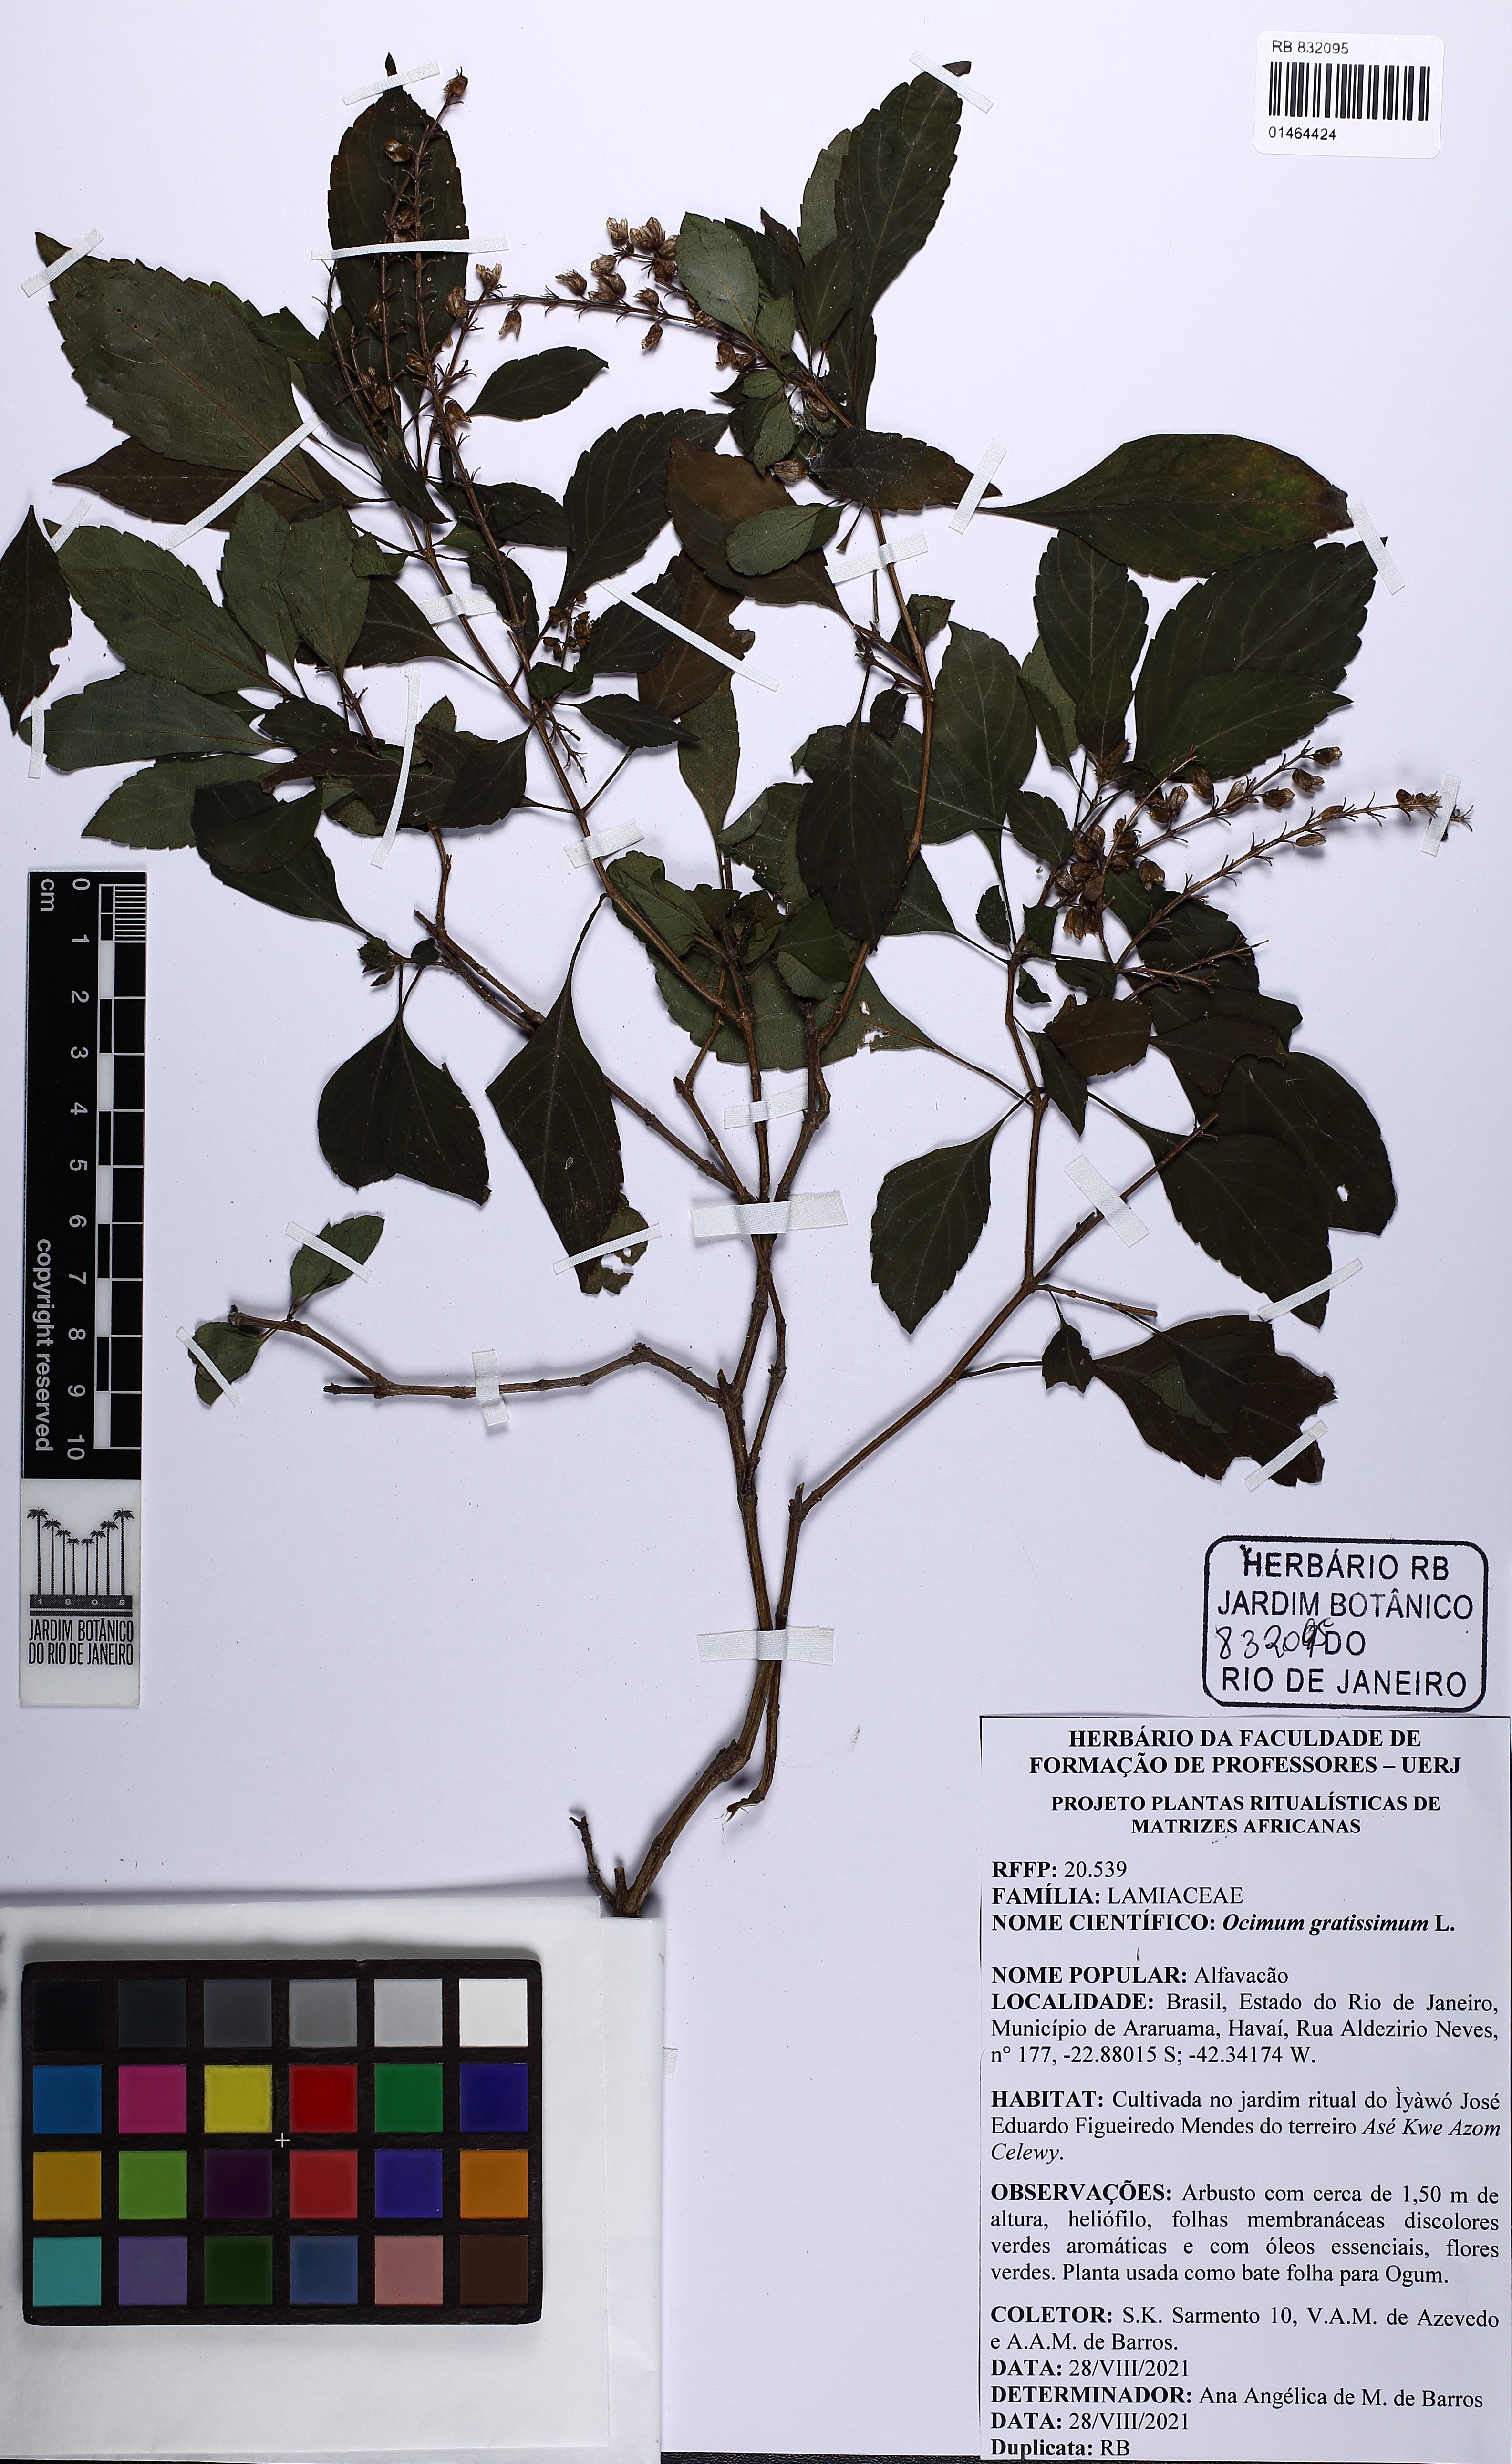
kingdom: Plantae
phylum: Tracheophyta
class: Magnoliopsida
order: Lamiales
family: Lamiaceae
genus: Ocimum
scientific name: Ocimum gratissimum
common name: African basil
